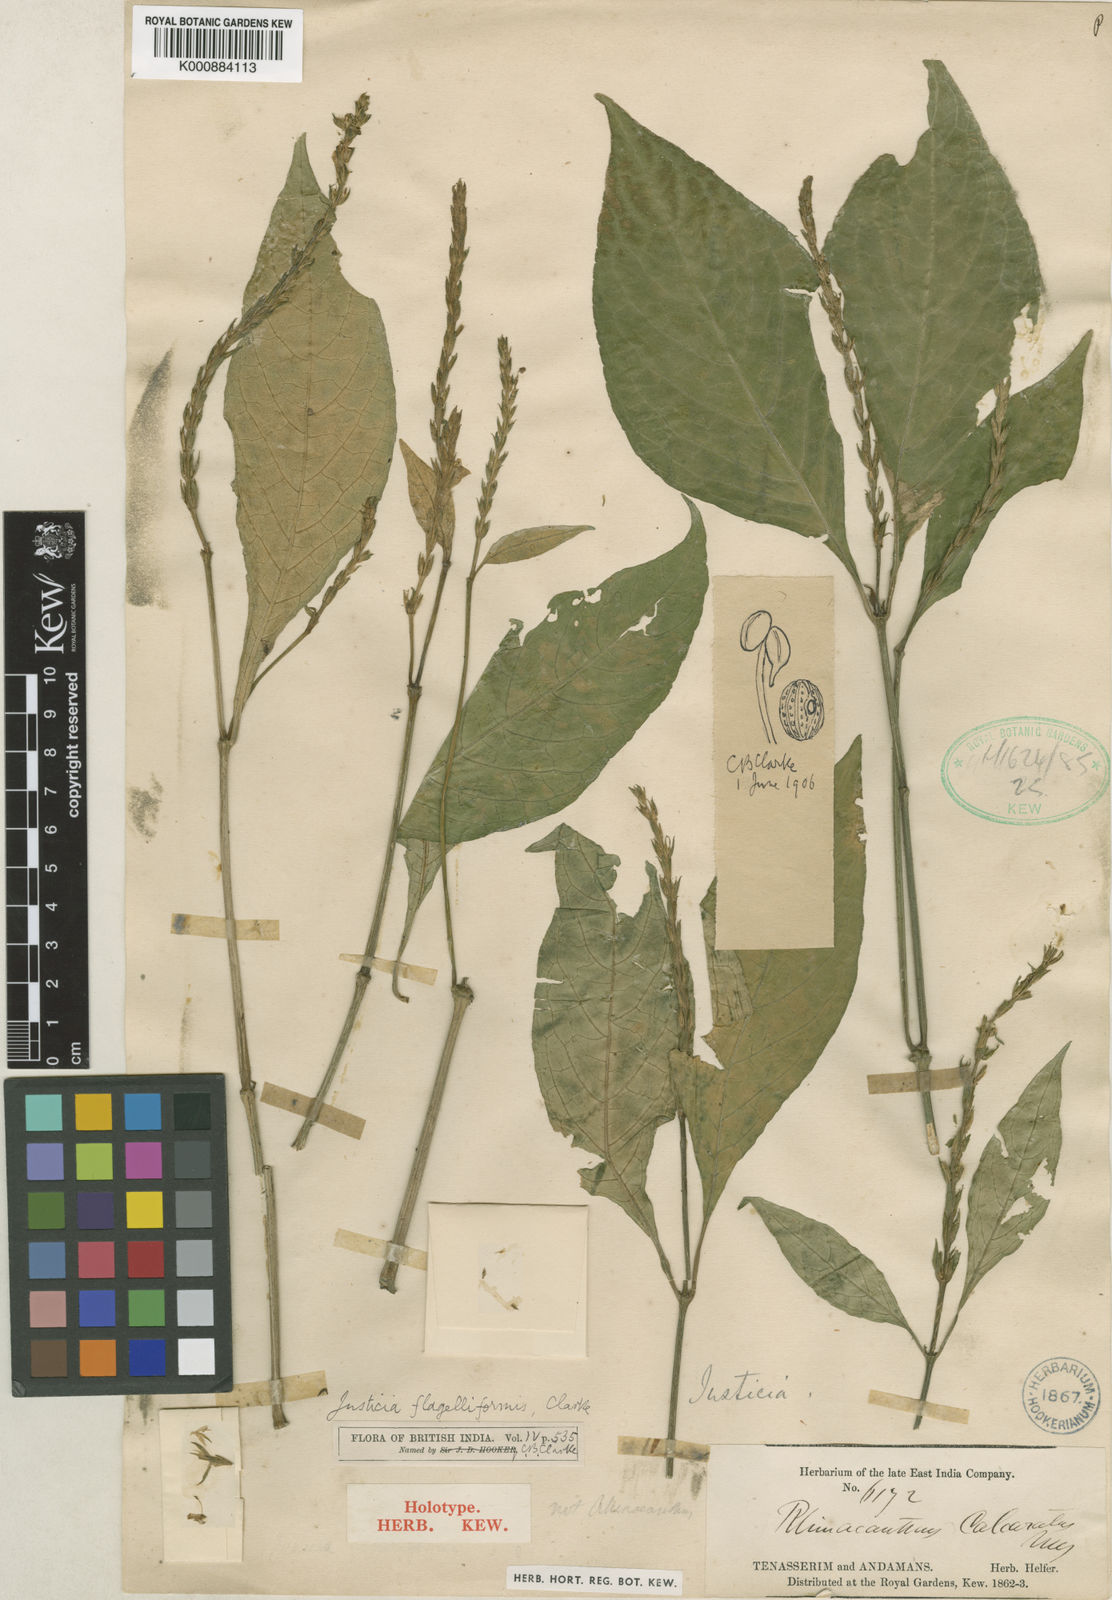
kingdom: Plantae
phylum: Tracheophyta
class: Magnoliopsida
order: Lamiales
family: Acanthaceae
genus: Justicia
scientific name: Justicia flagelliformis
